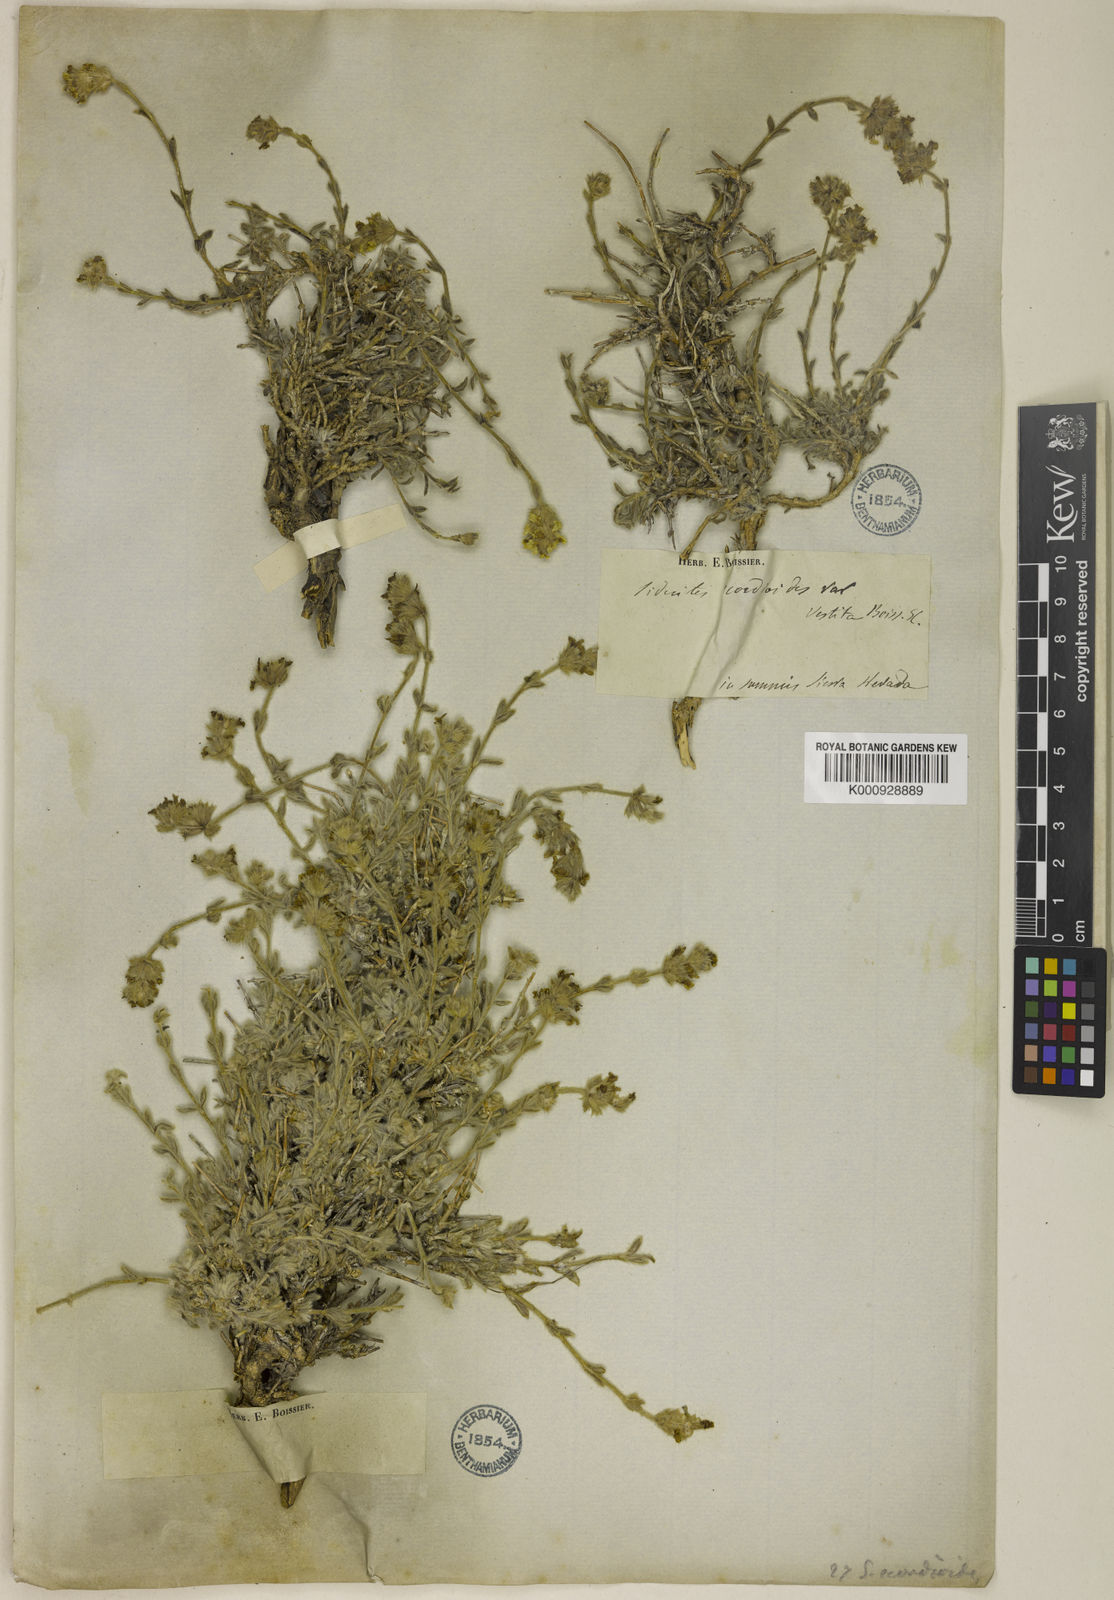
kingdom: Plantae
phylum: Tracheophyta
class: Magnoliopsida
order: Lamiales
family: Lamiaceae
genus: Sideritis
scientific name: Sideritis glacialis
